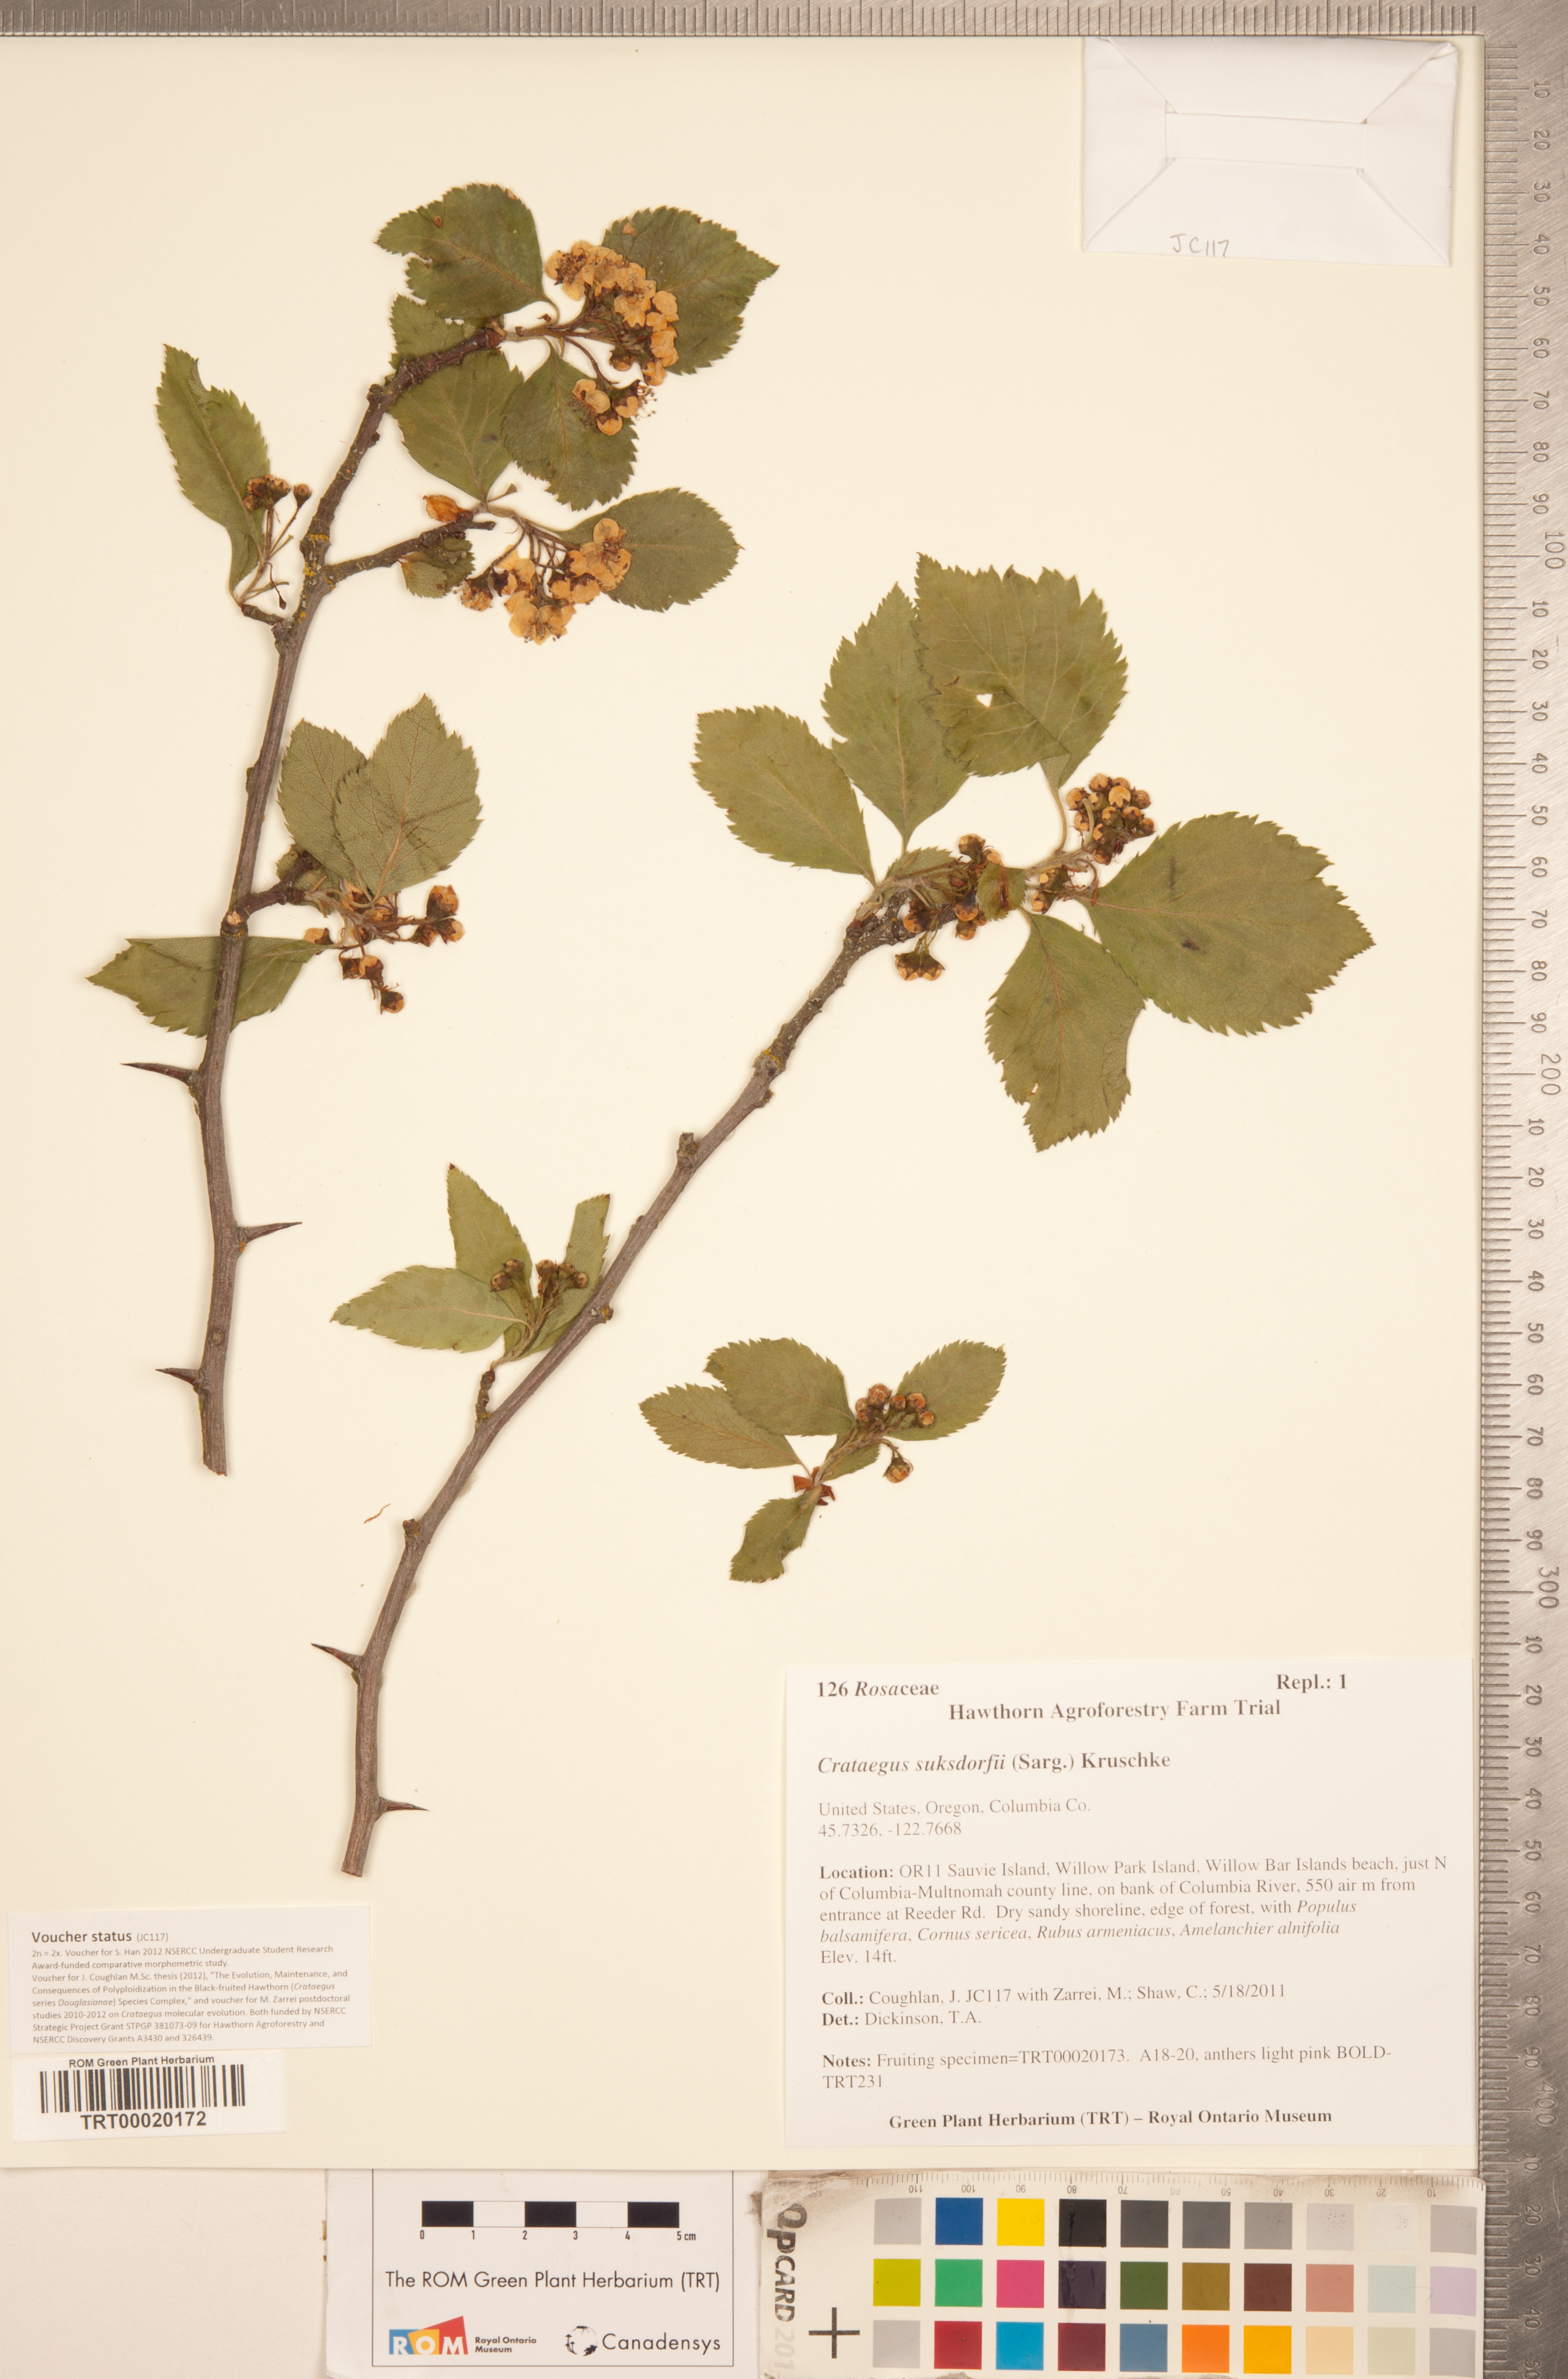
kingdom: Plantae
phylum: Tracheophyta
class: Magnoliopsida
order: Rosales
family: Rosaceae
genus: Crataegus
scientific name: Crataegus gaylussacia
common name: Huckleberry hawthorn
